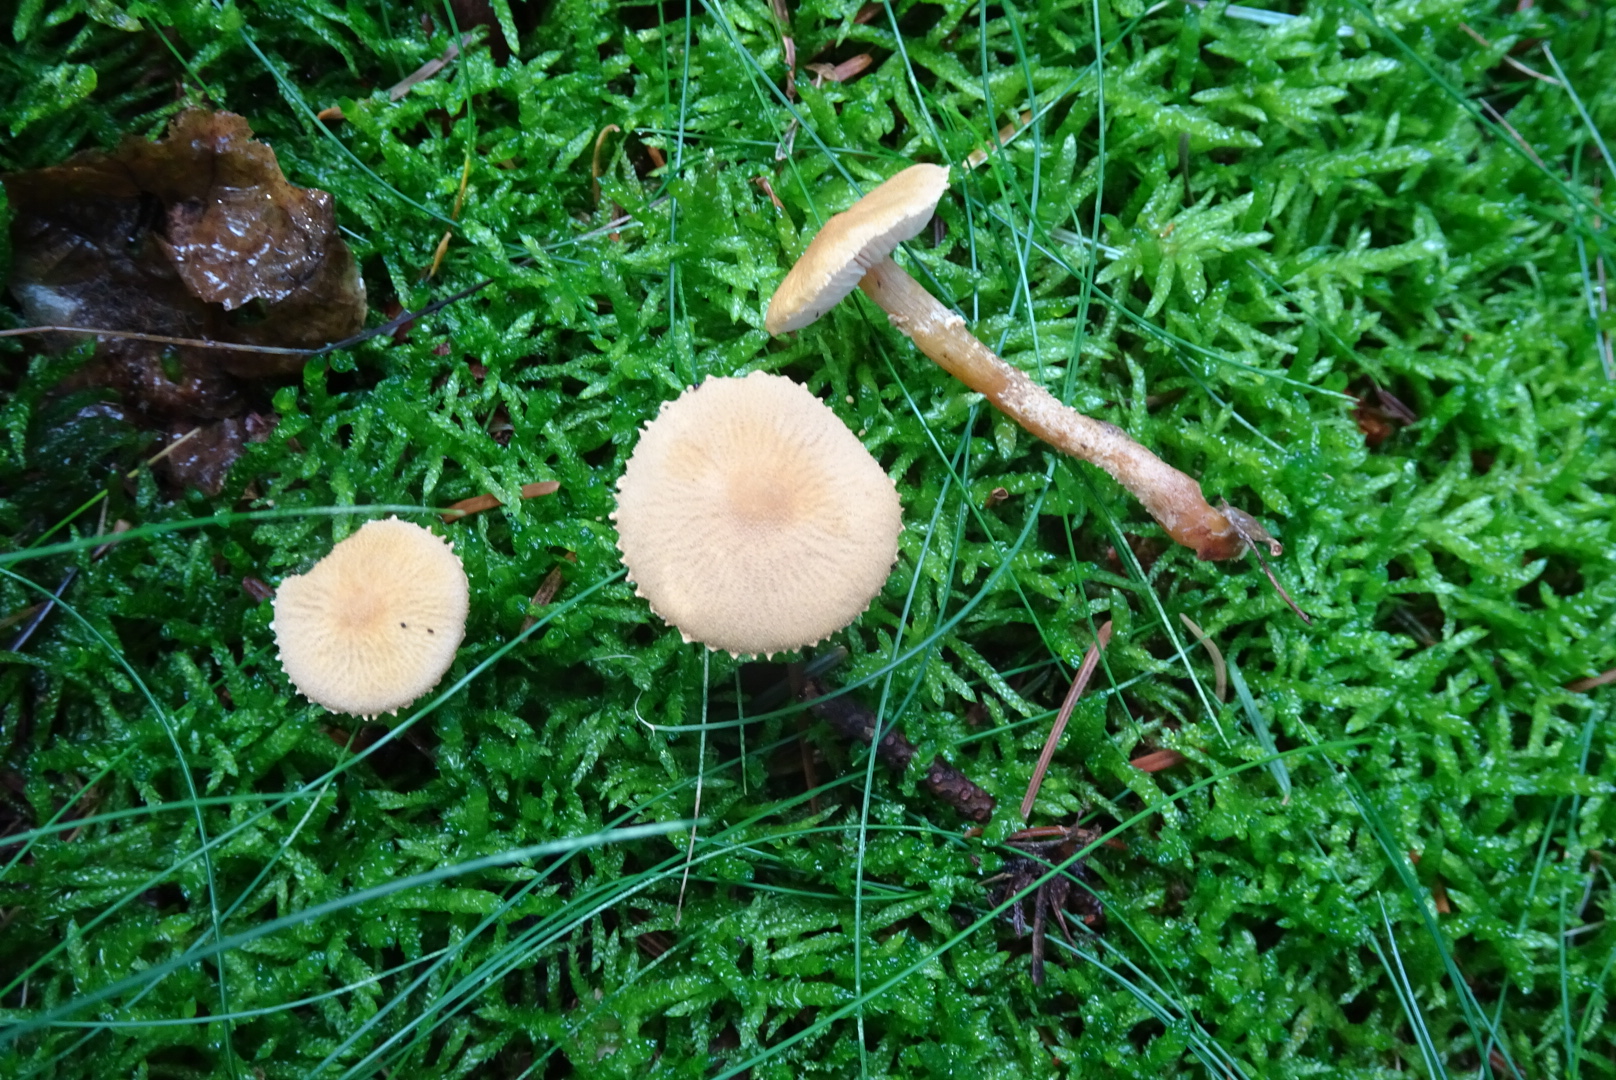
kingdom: Fungi
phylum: Basidiomycota
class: Agaricomycetes
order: Agaricales
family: Tricholomataceae
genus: Cystoderma
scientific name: Cystoderma amianthinum
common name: okkergul grynhat
